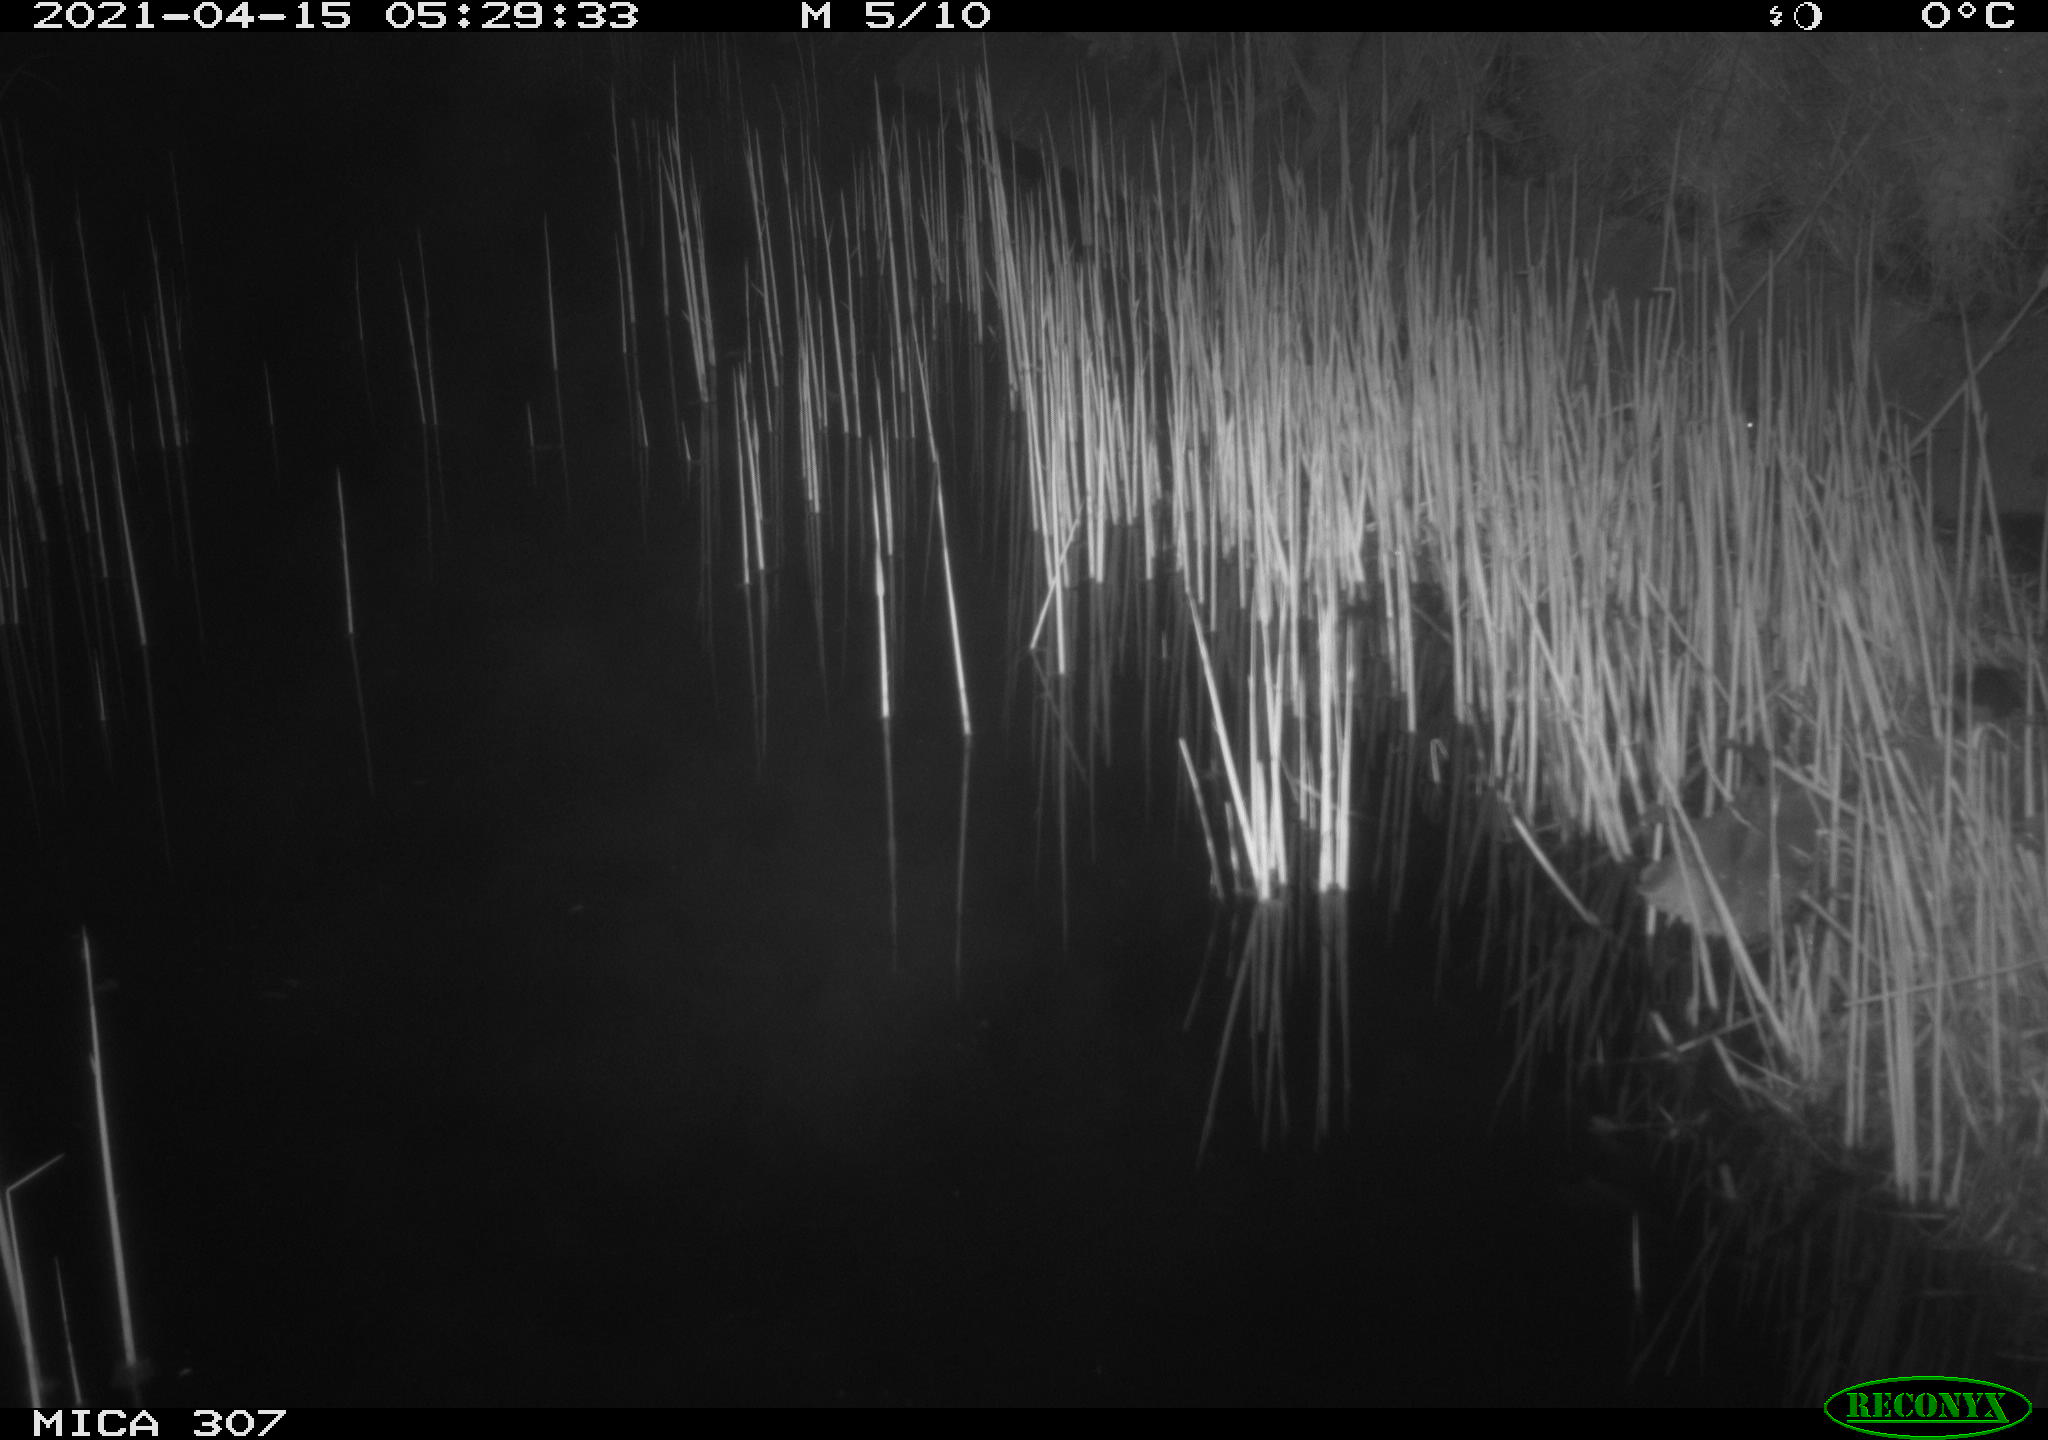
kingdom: Animalia
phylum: Chordata
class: Mammalia
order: Rodentia
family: Muridae
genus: Rattus
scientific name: Rattus norvegicus
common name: Brown rat
